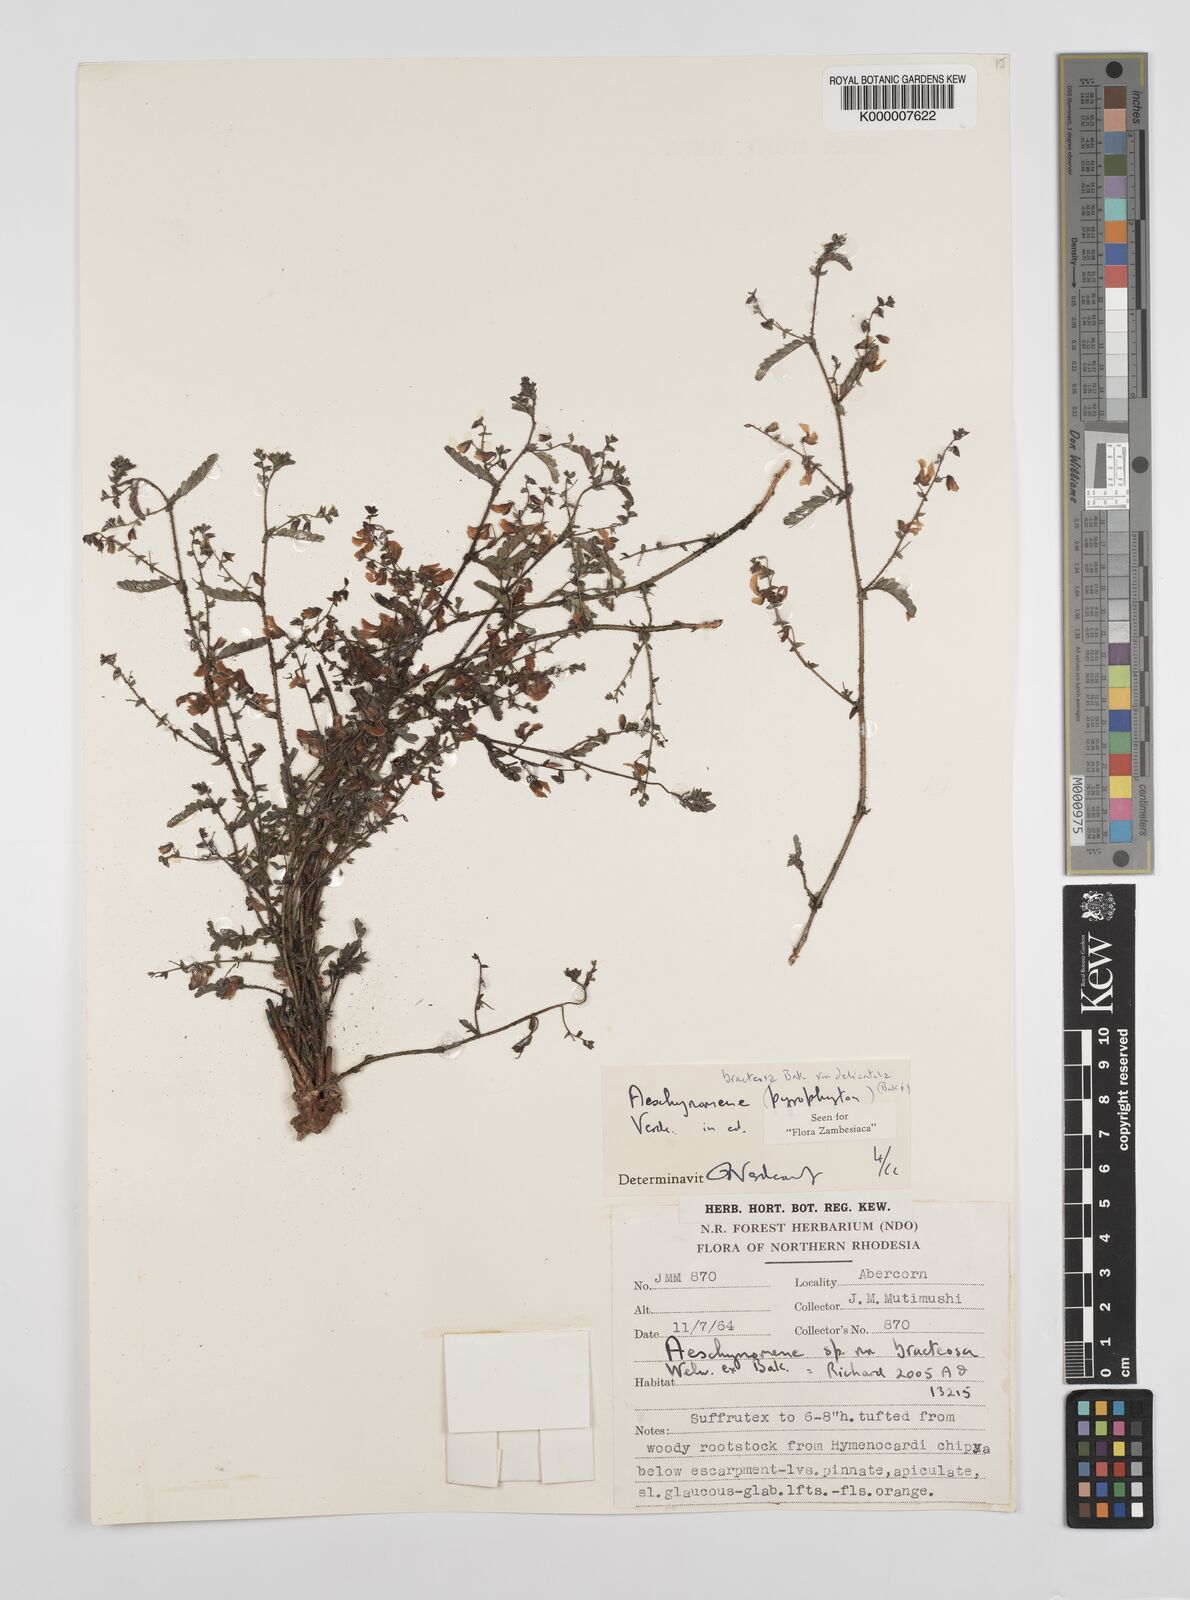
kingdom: Plantae
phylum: Tracheophyta
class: Magnoliopsida
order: Fabales
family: Fabaceae
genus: Aeschynomene
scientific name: Aeschynomene bracteosa
